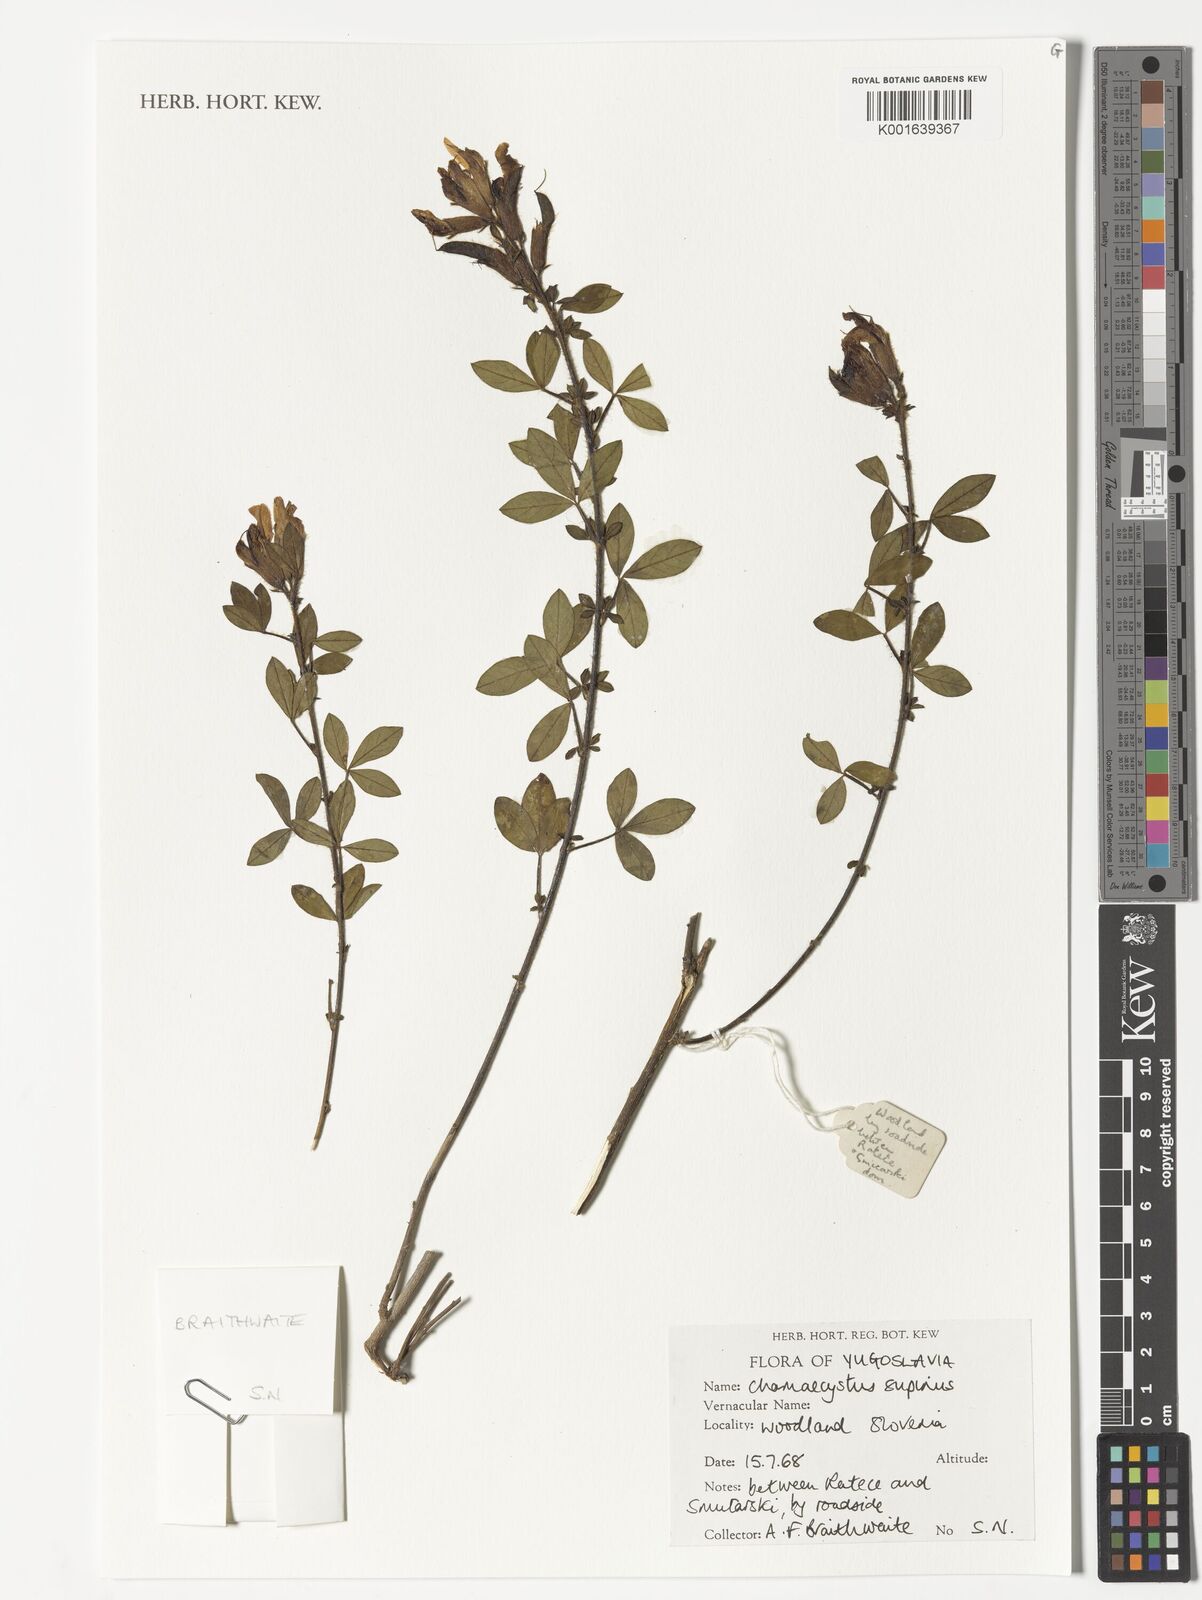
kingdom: Plantae
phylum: Tracheophyta
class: Magnoliopsida
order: Fabales
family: Fabaceae
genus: Chamaecytisus
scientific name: Chamaecytisus supinus
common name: Clustered broom
